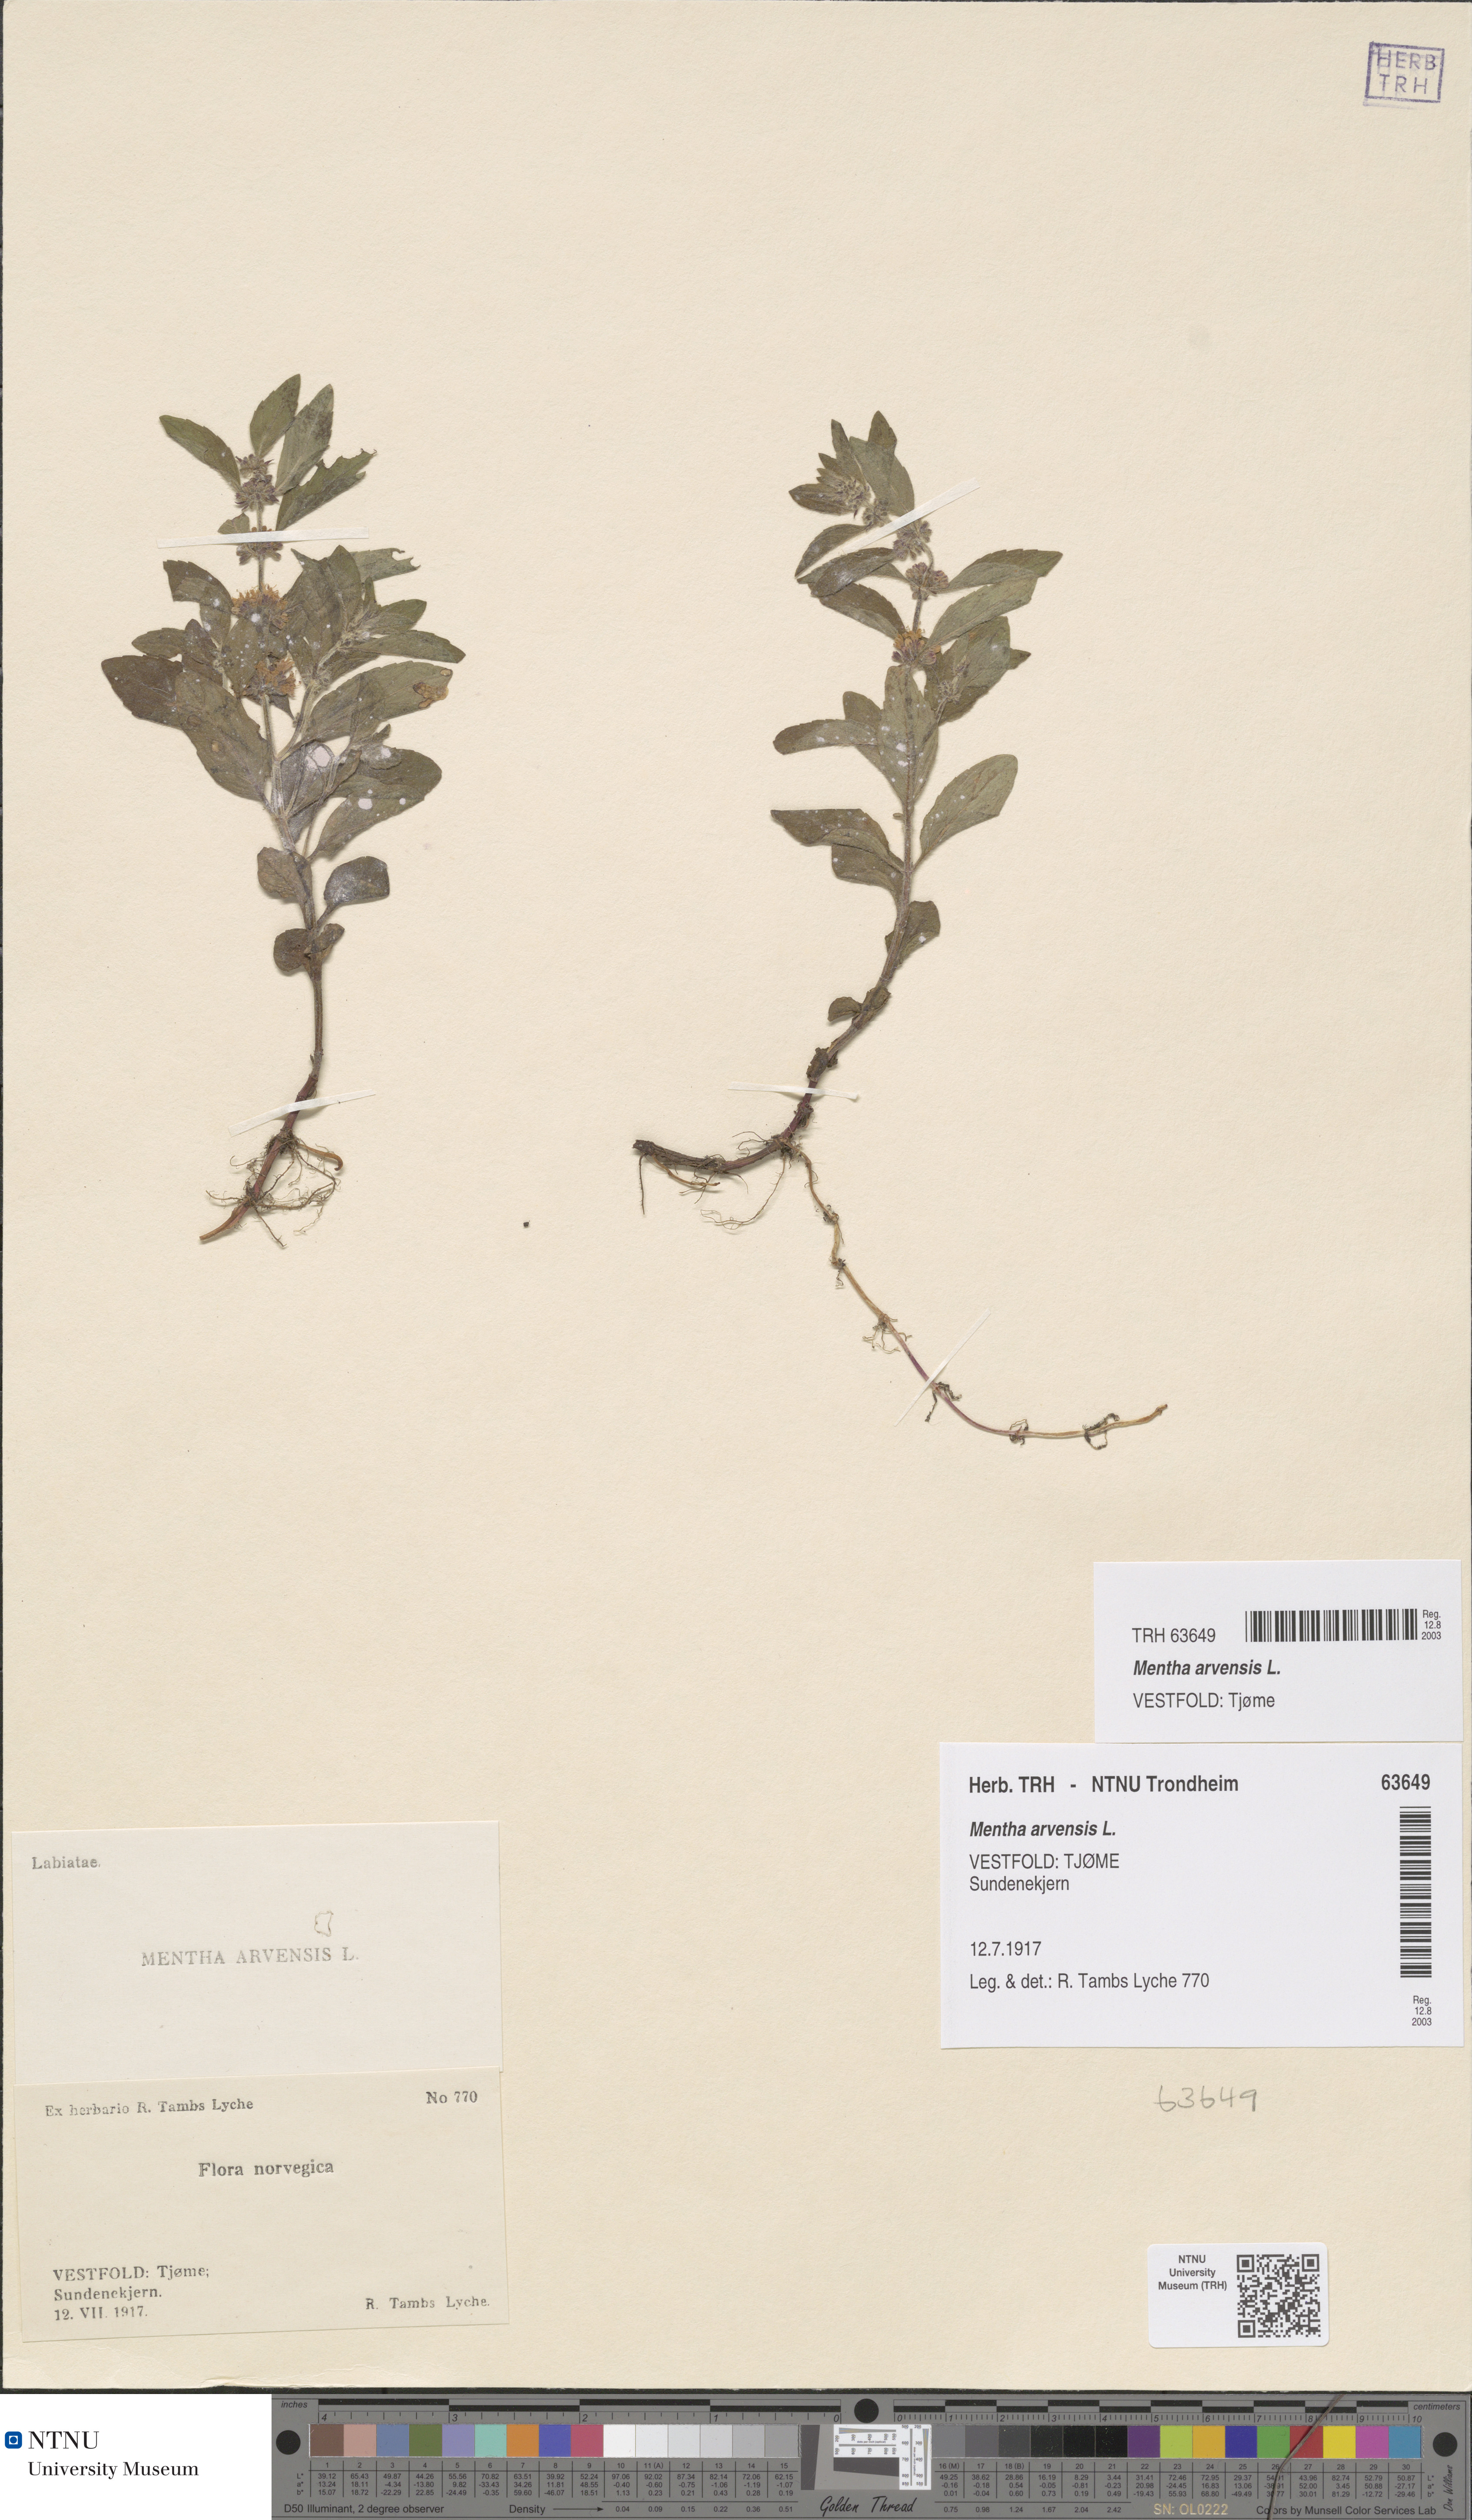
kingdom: Plantae
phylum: Tracheophyta
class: Magnoliopsida
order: Lamiales
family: Lamiaceae
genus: Mentha
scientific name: Mentha arvensis
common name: Corn mint
